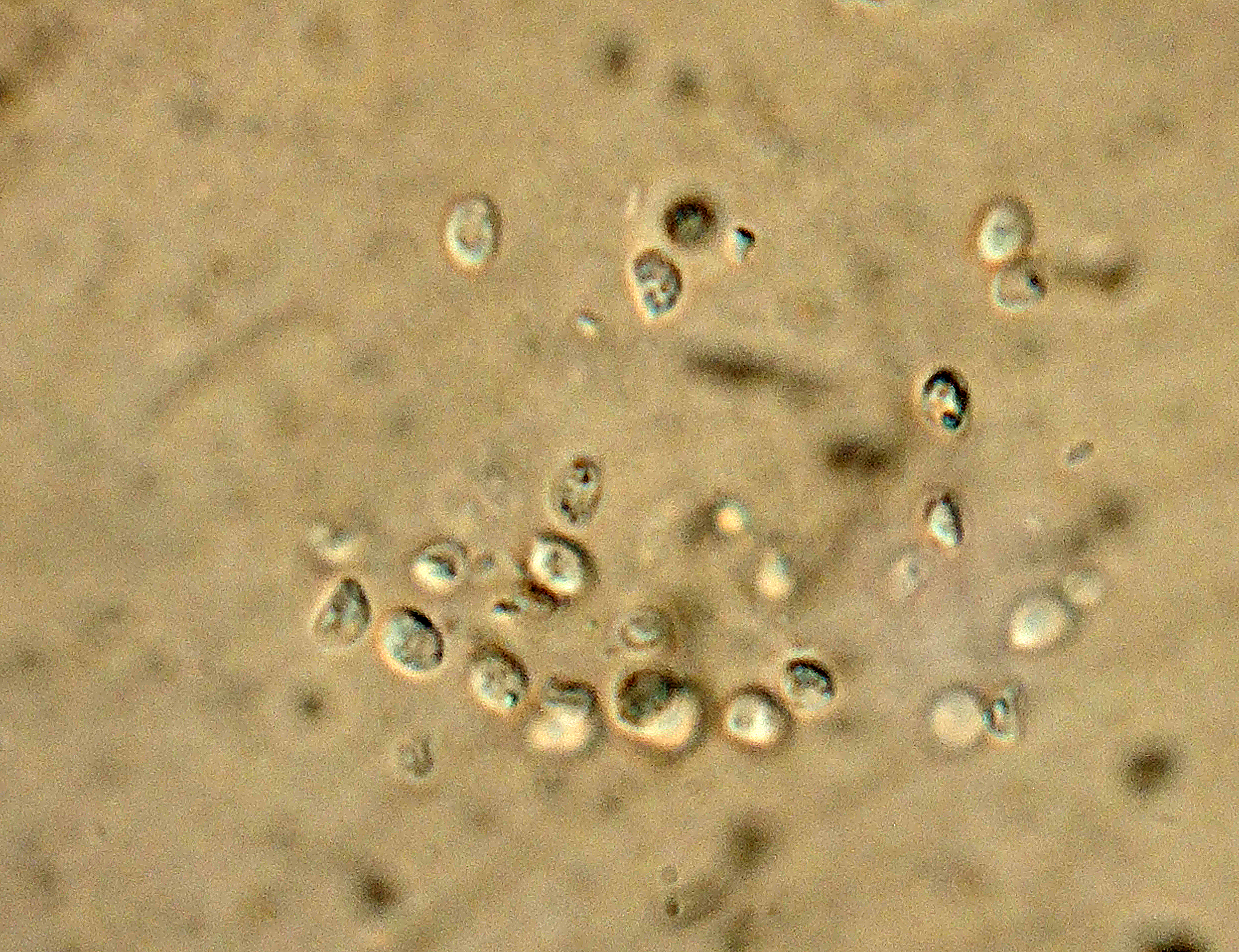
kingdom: Fungi
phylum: Basidiomycota
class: Agaricomycetes
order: Amylocorticiales
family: Amylocorticiaceae
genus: Ceraceomyces
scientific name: Ceraceomyces eludens
